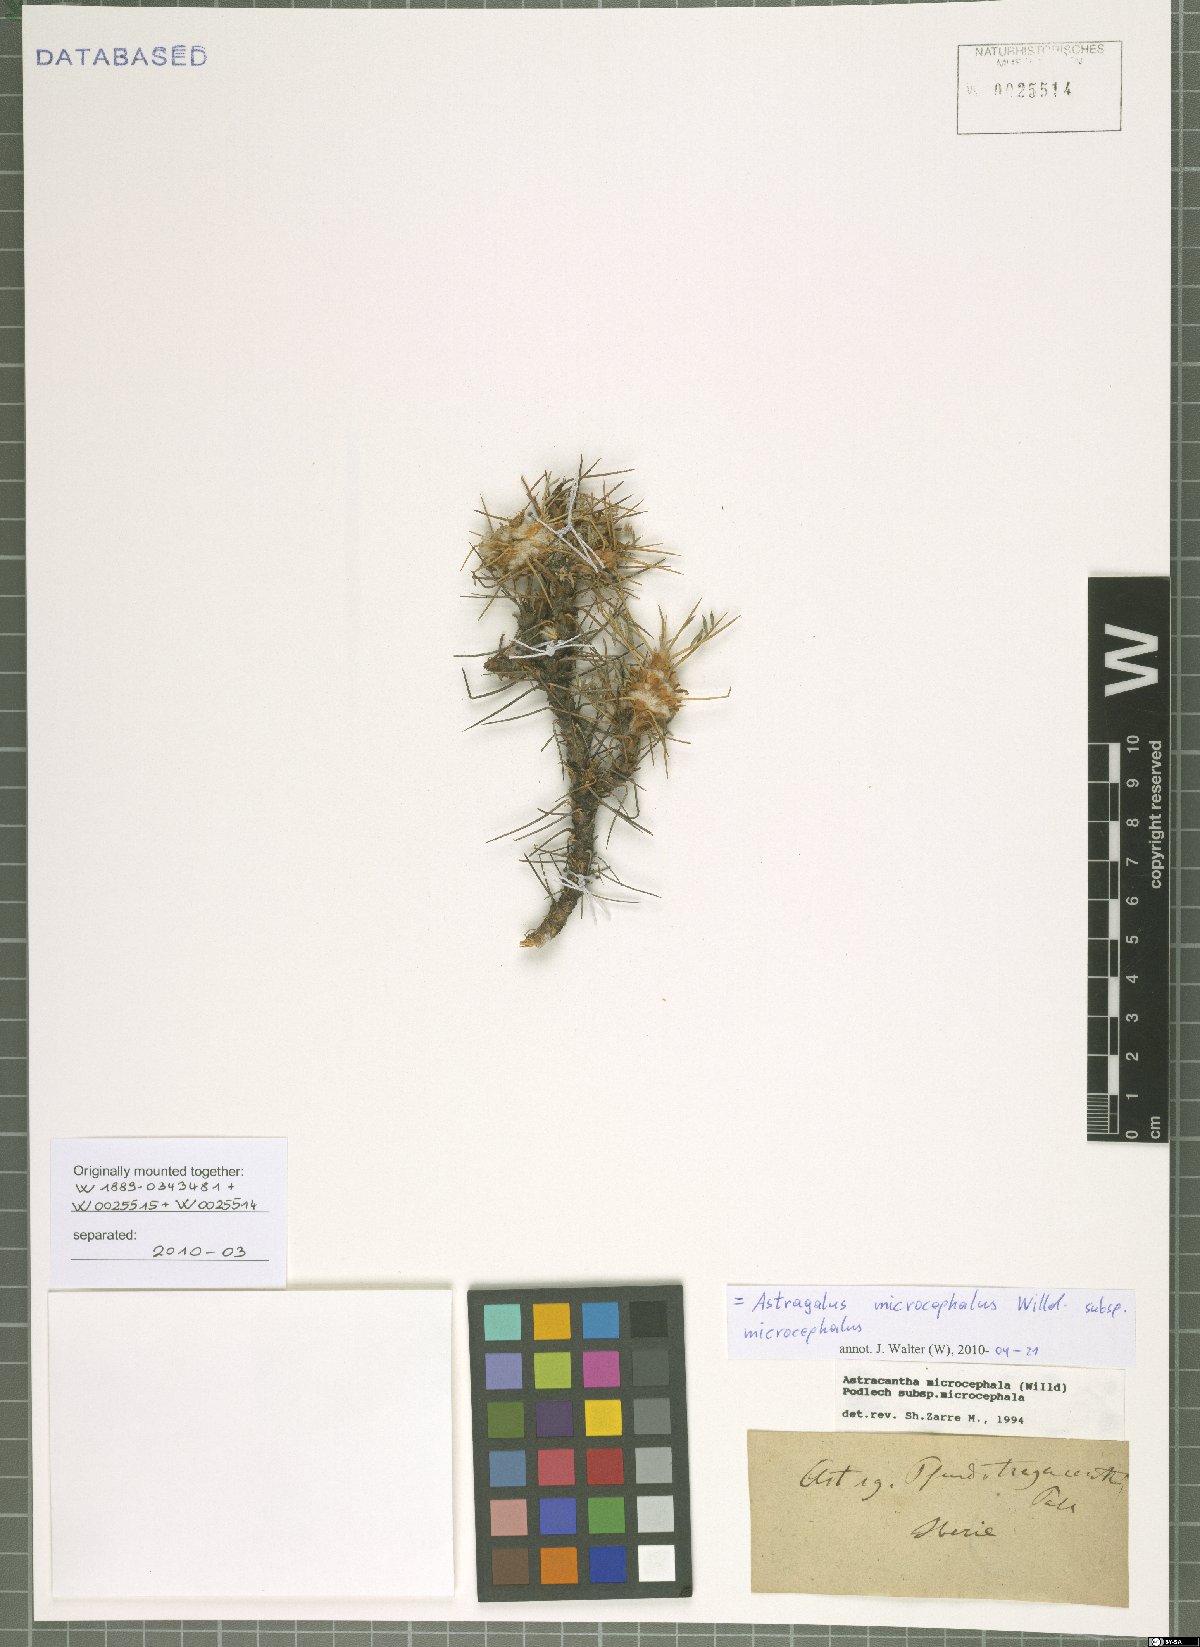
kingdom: Plantae
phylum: Tracheophyta
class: Magnoliopsida
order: Fabales
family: Fabaceae
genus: Astragalus
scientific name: Astragalus microcephalus
